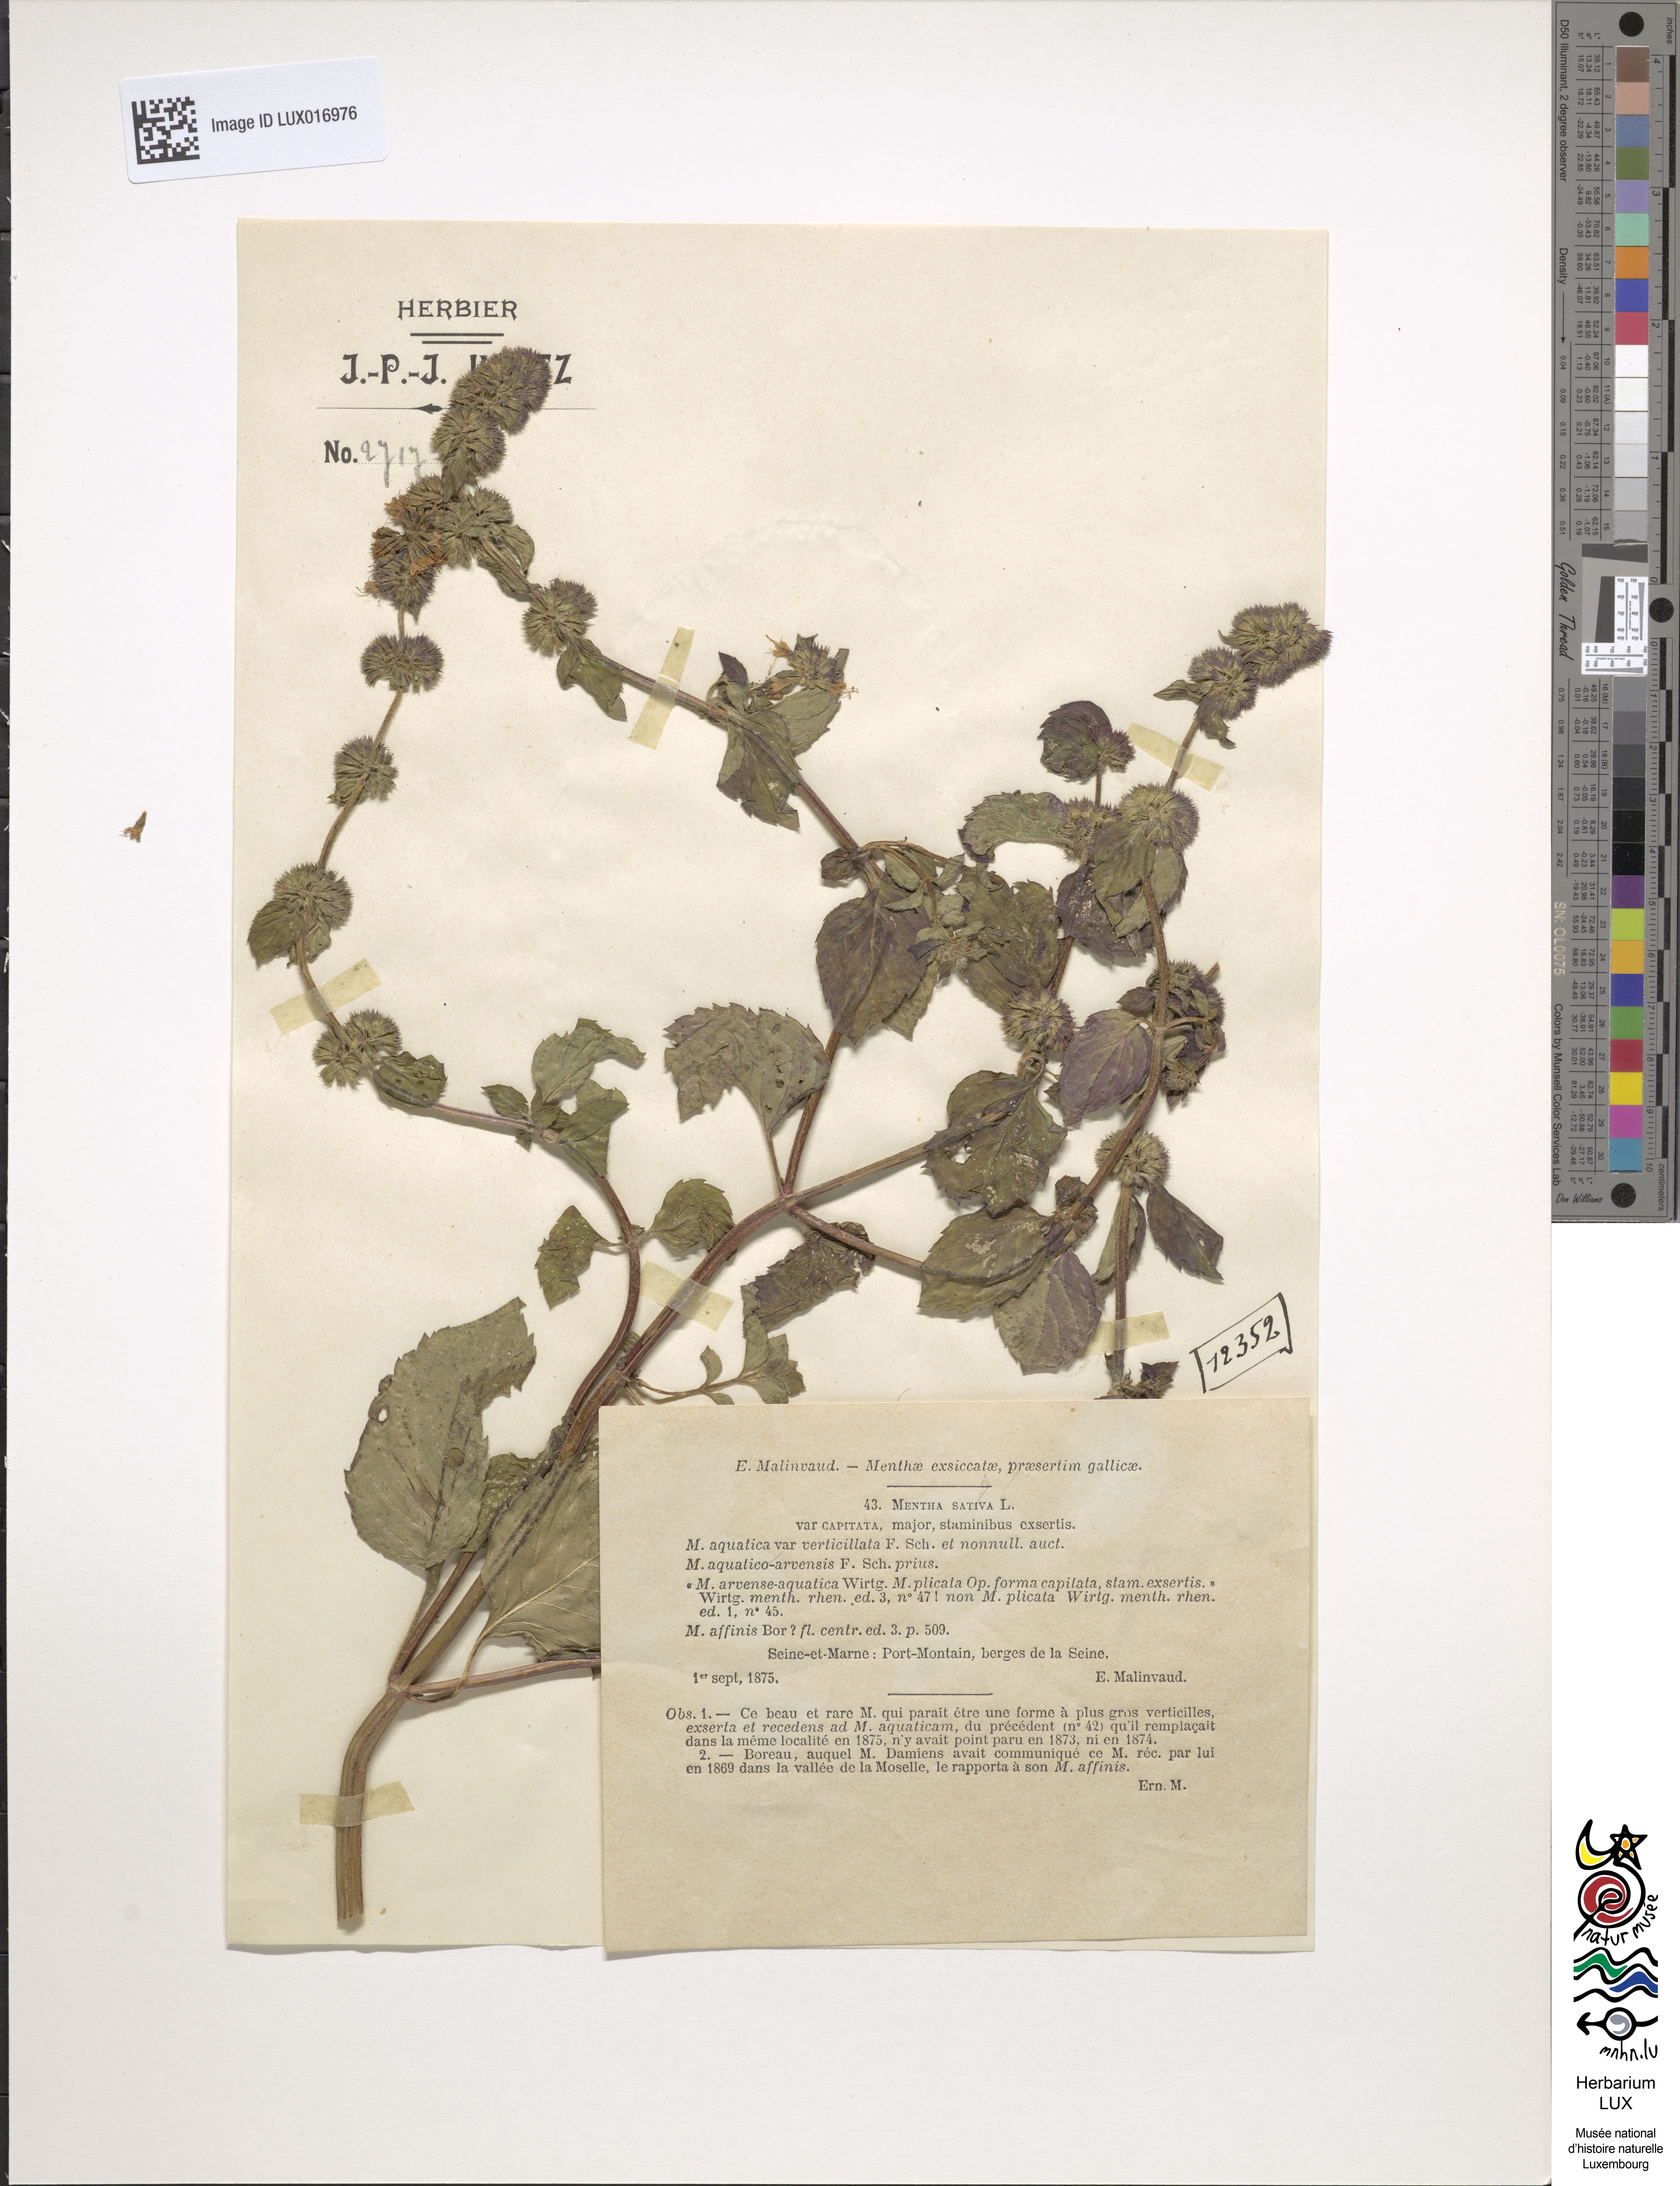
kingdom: Plantae
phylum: Tracheophyta
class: Magnoliopsida
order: Lamiales
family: Lamiaceae
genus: Mentha
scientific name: Mentha verticillata
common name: Mint
